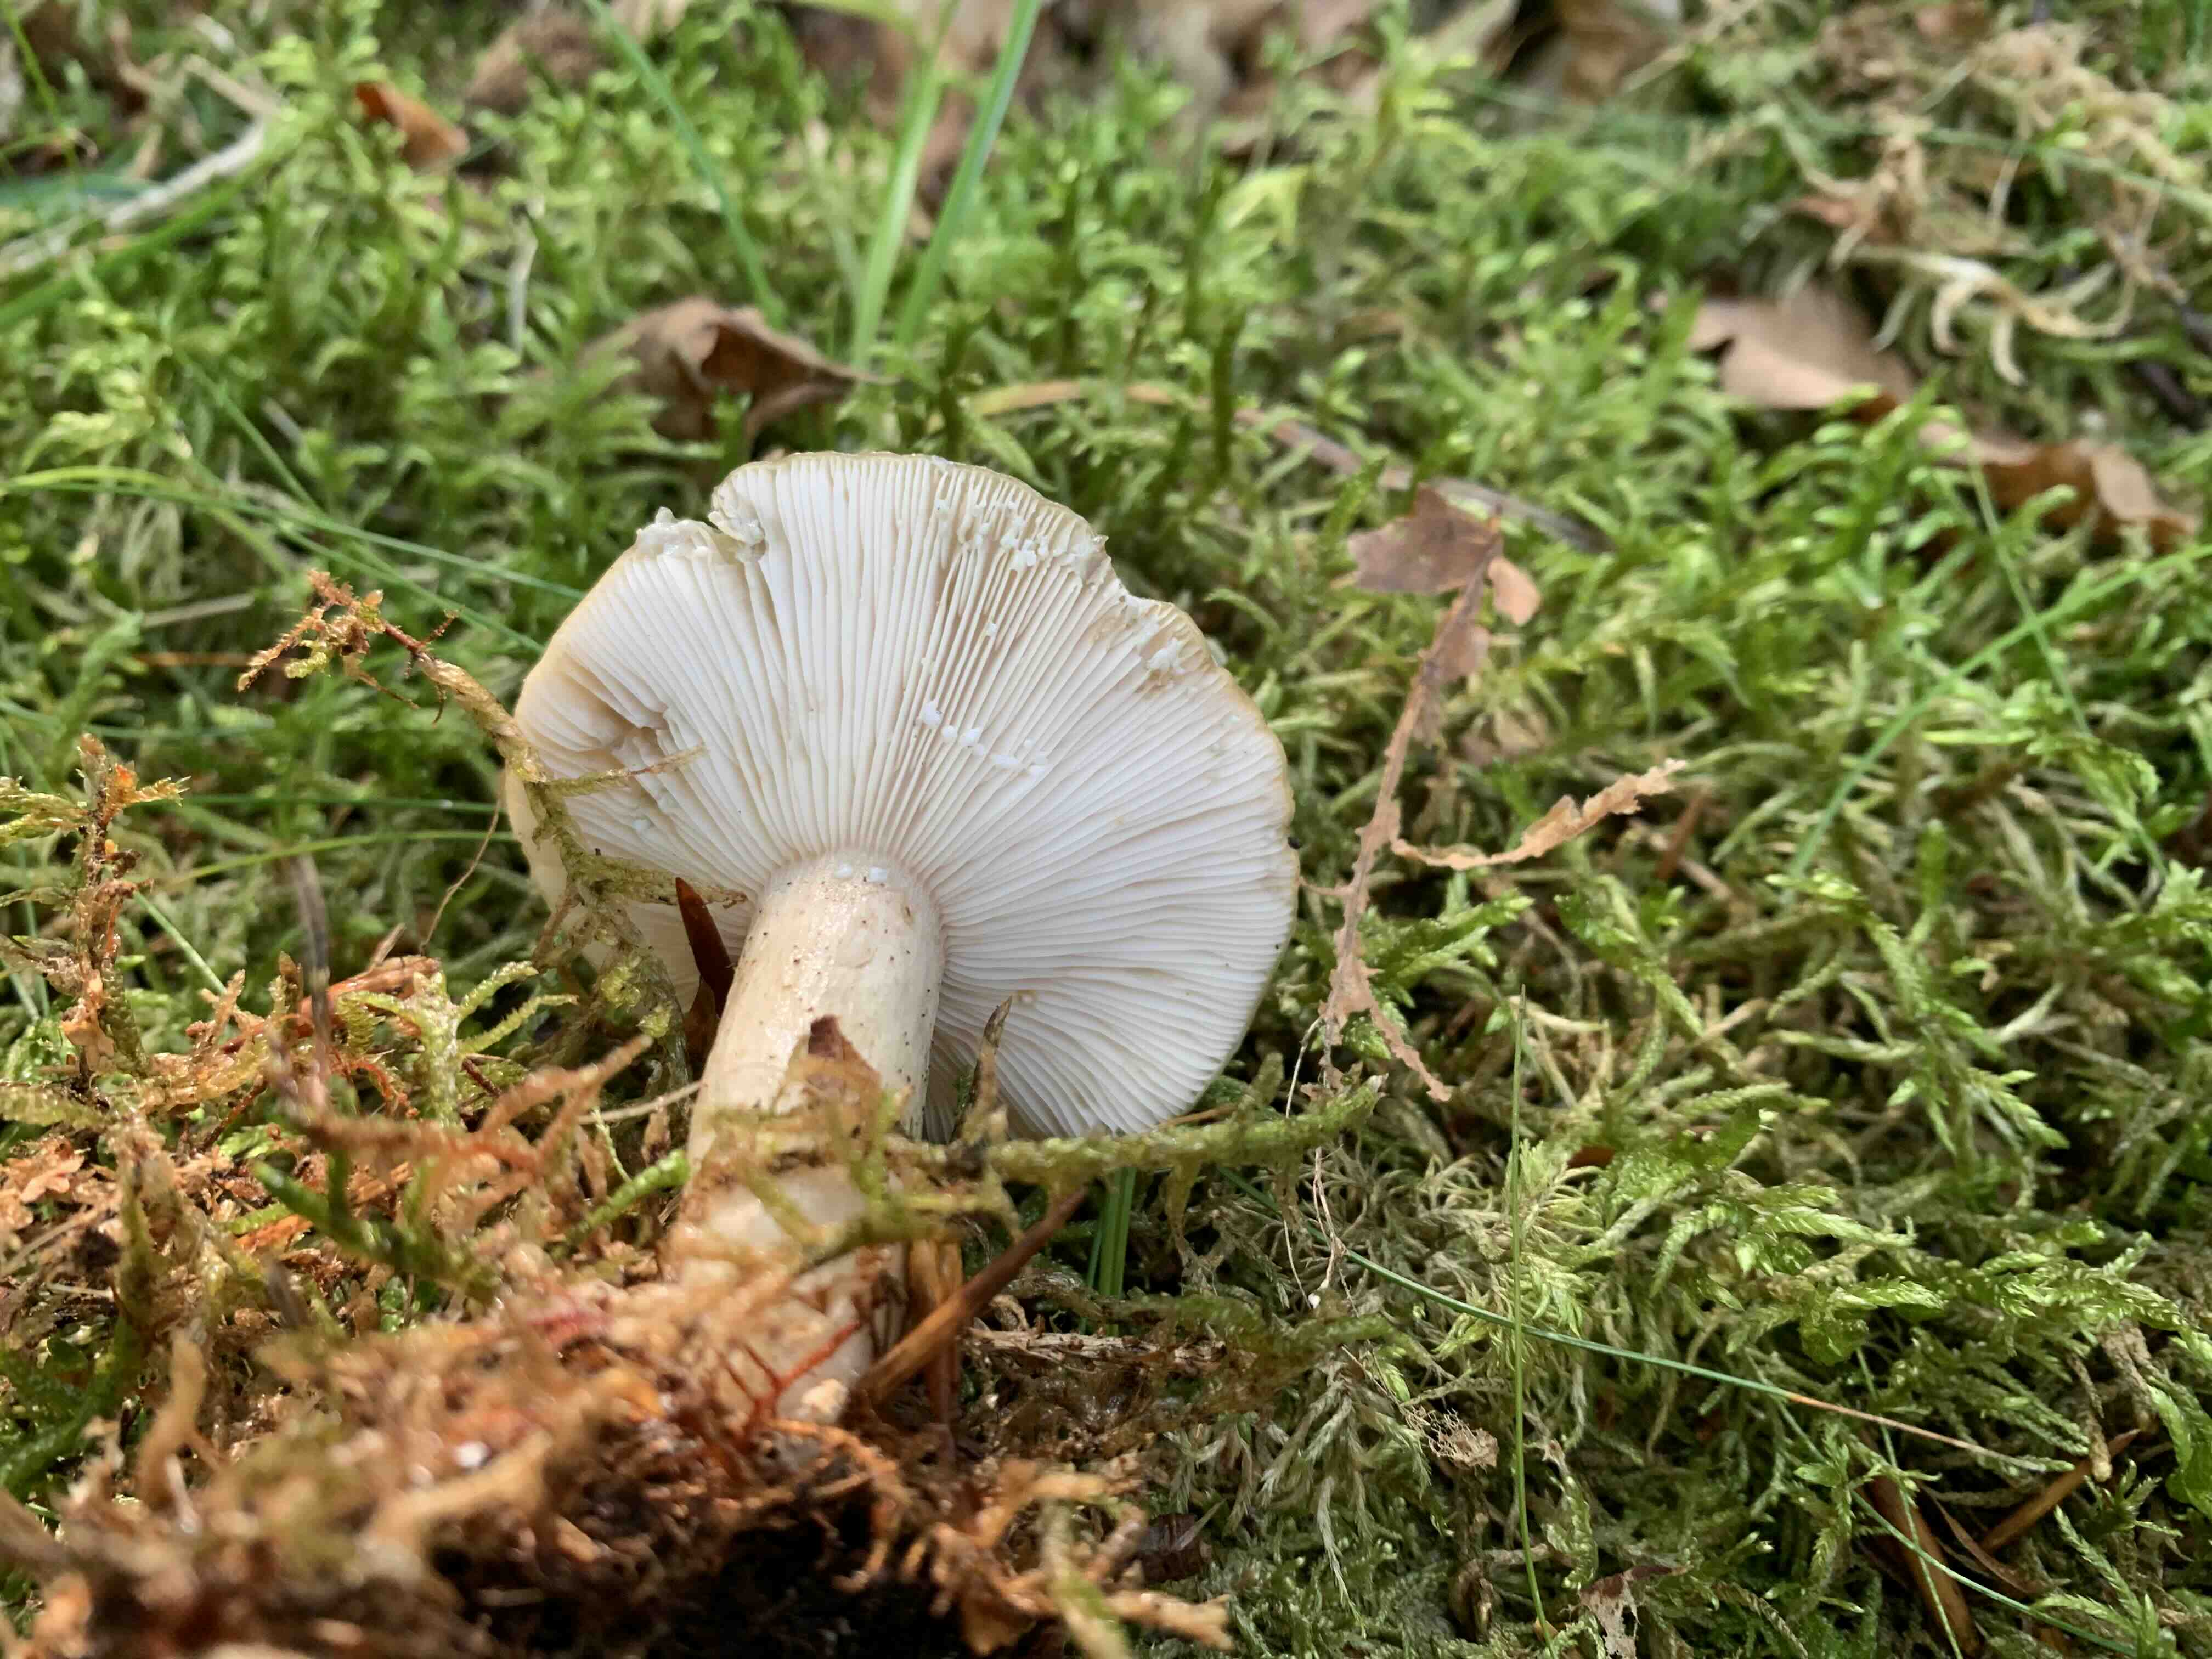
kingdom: Fungi
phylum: Basidiomycota
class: Agaricomycetes
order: Russulales
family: Russulaceae
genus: Lactarius
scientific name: Lactarius blennius
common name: dråbeplettet mælkehat
